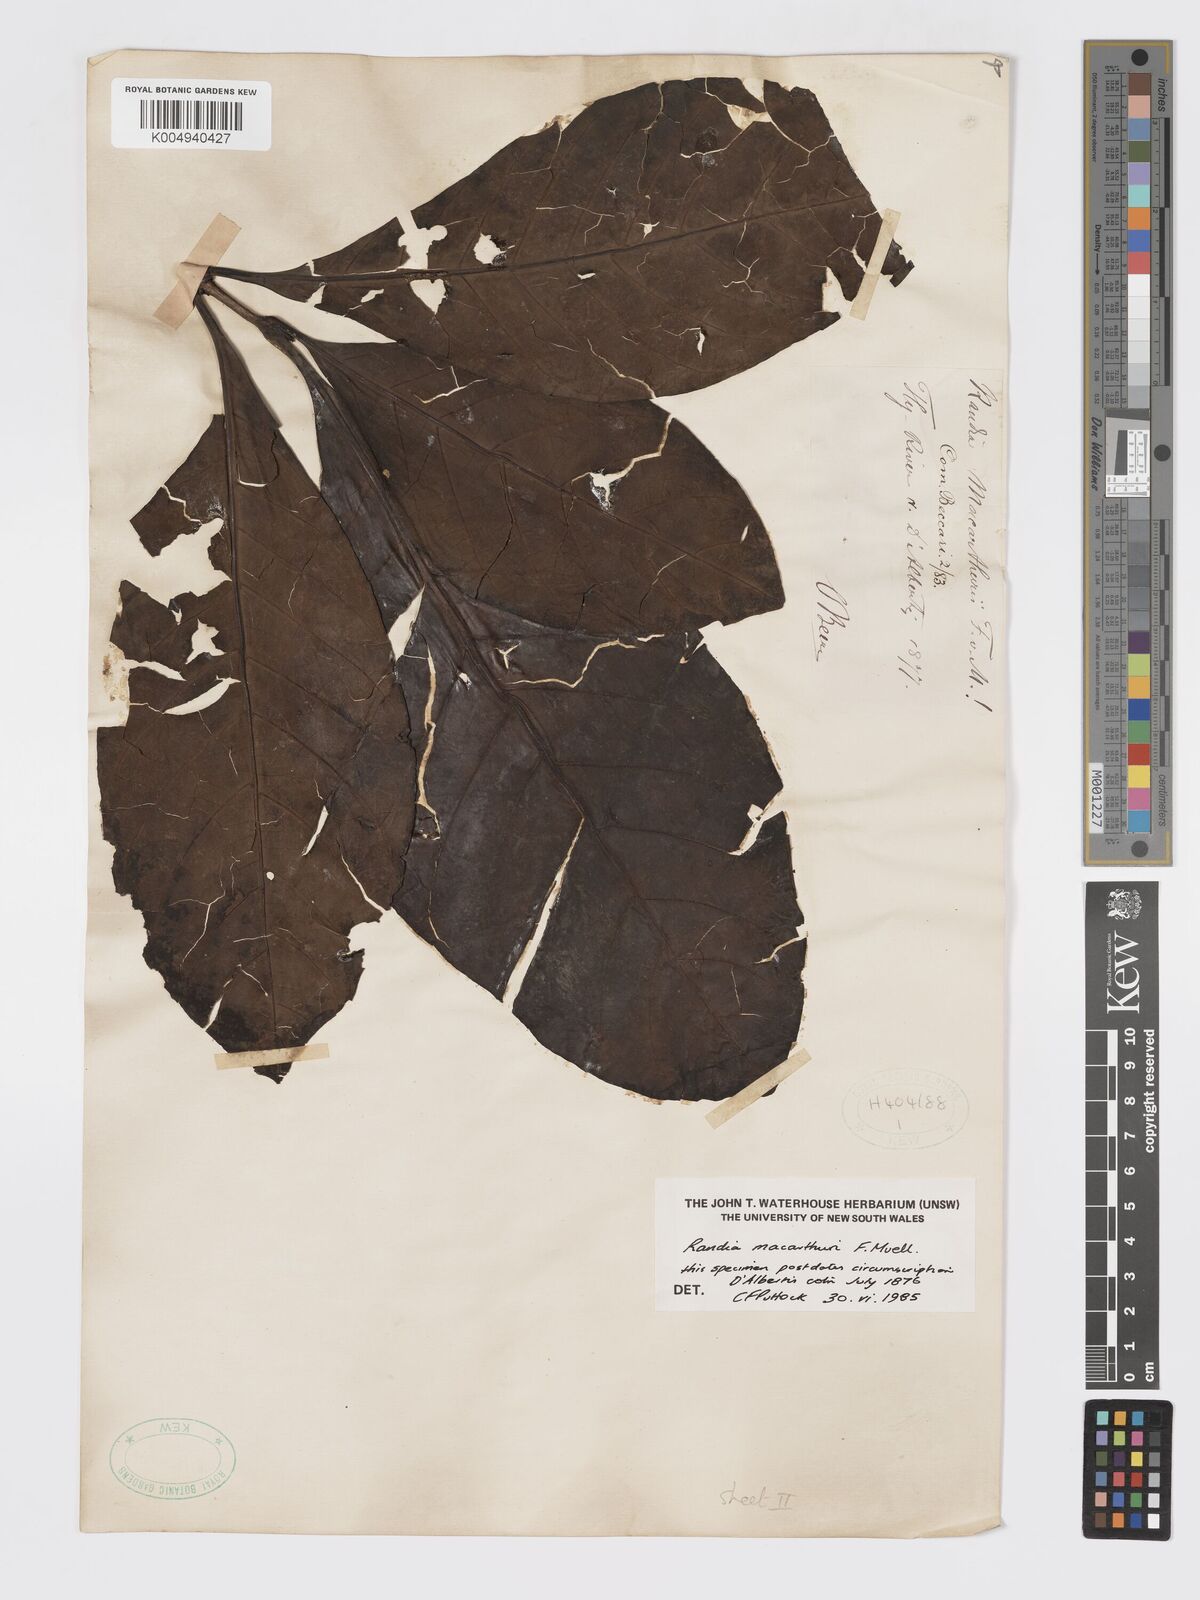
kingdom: Plantae
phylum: Tracheophyta
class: Magnoliopsida
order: Gentianales
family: Rubiaceae
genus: Atractocarpus
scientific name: Atractocarpus macarthurii
